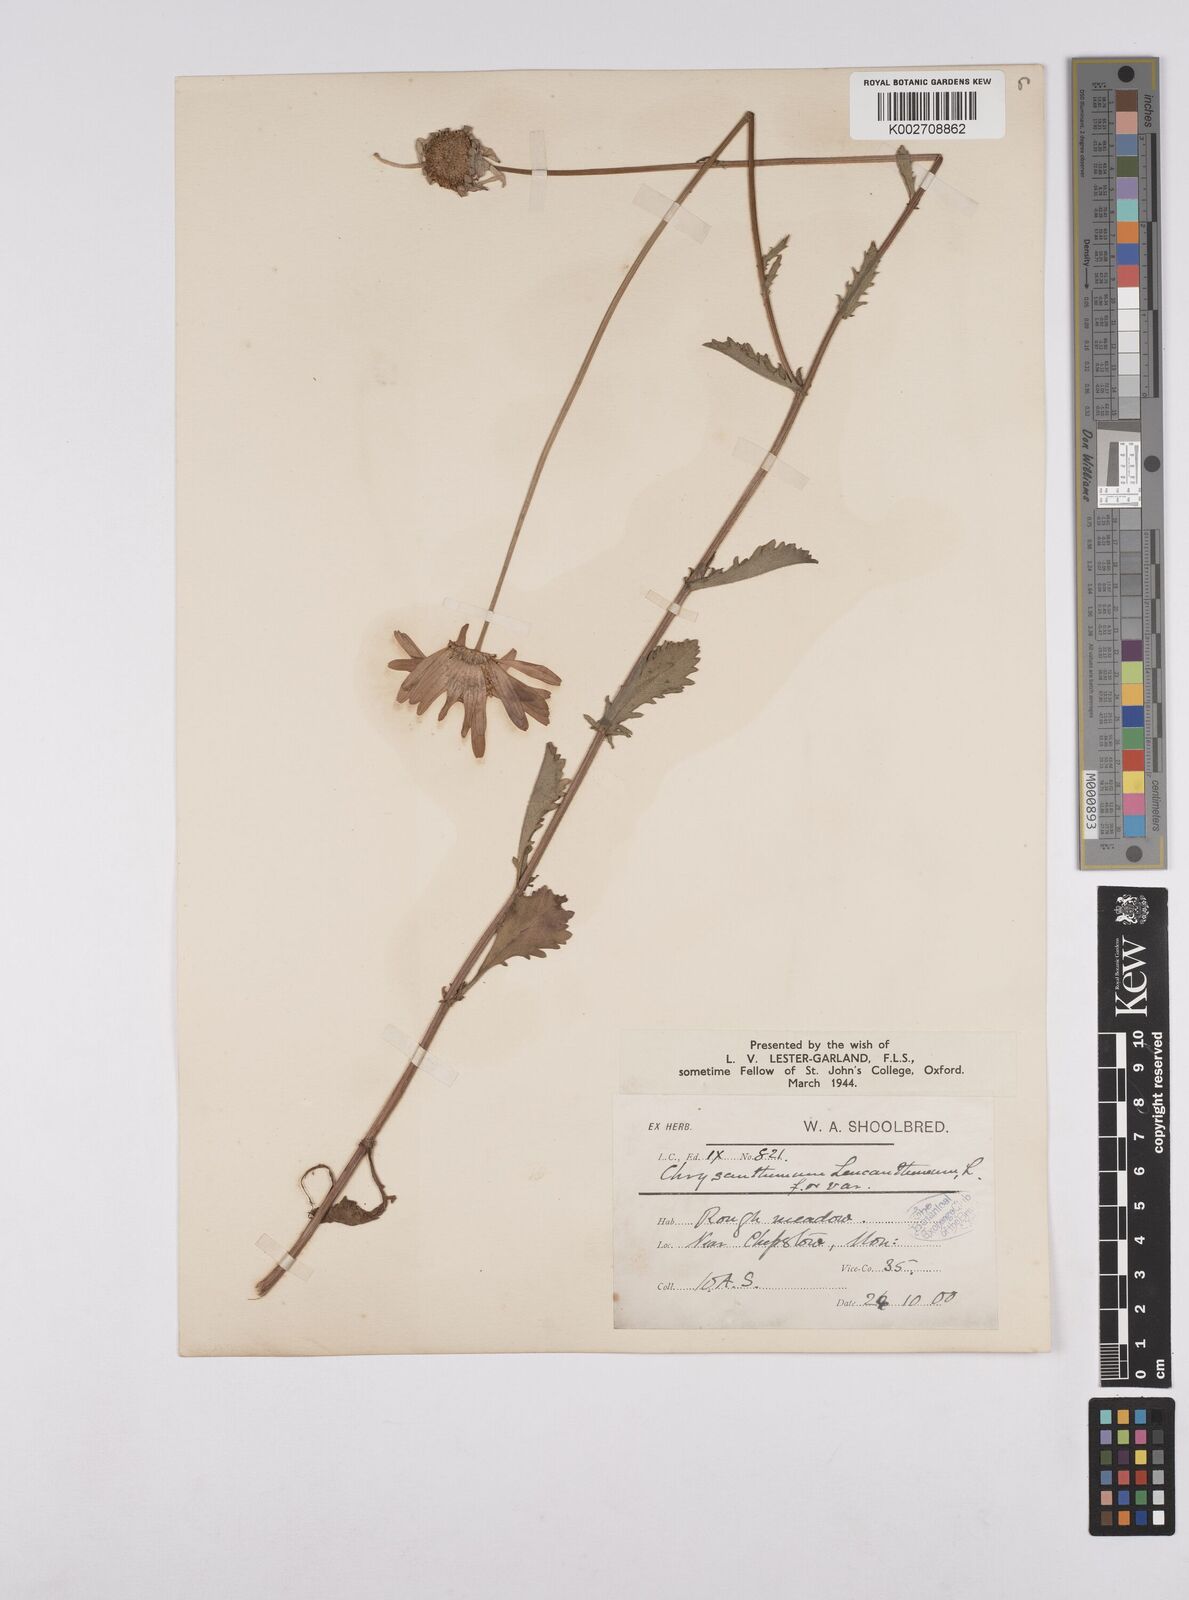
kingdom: Plantae
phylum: Tracheophyta
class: Magnoliopsida
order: Asterales
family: Asteraceae
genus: Leucanthemum
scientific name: Leucanthemum
